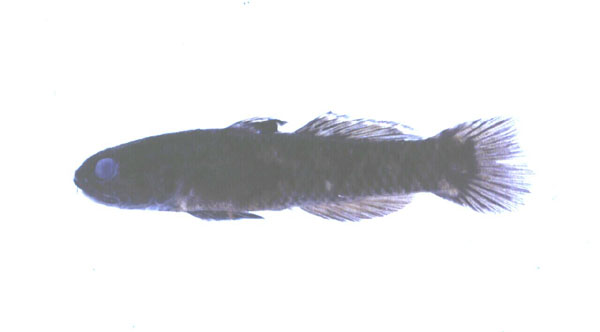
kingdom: Animalia
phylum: Chordata
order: Perciformes
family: Gobiidae
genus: Mugilogobius
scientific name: Mugilogobius zebra
